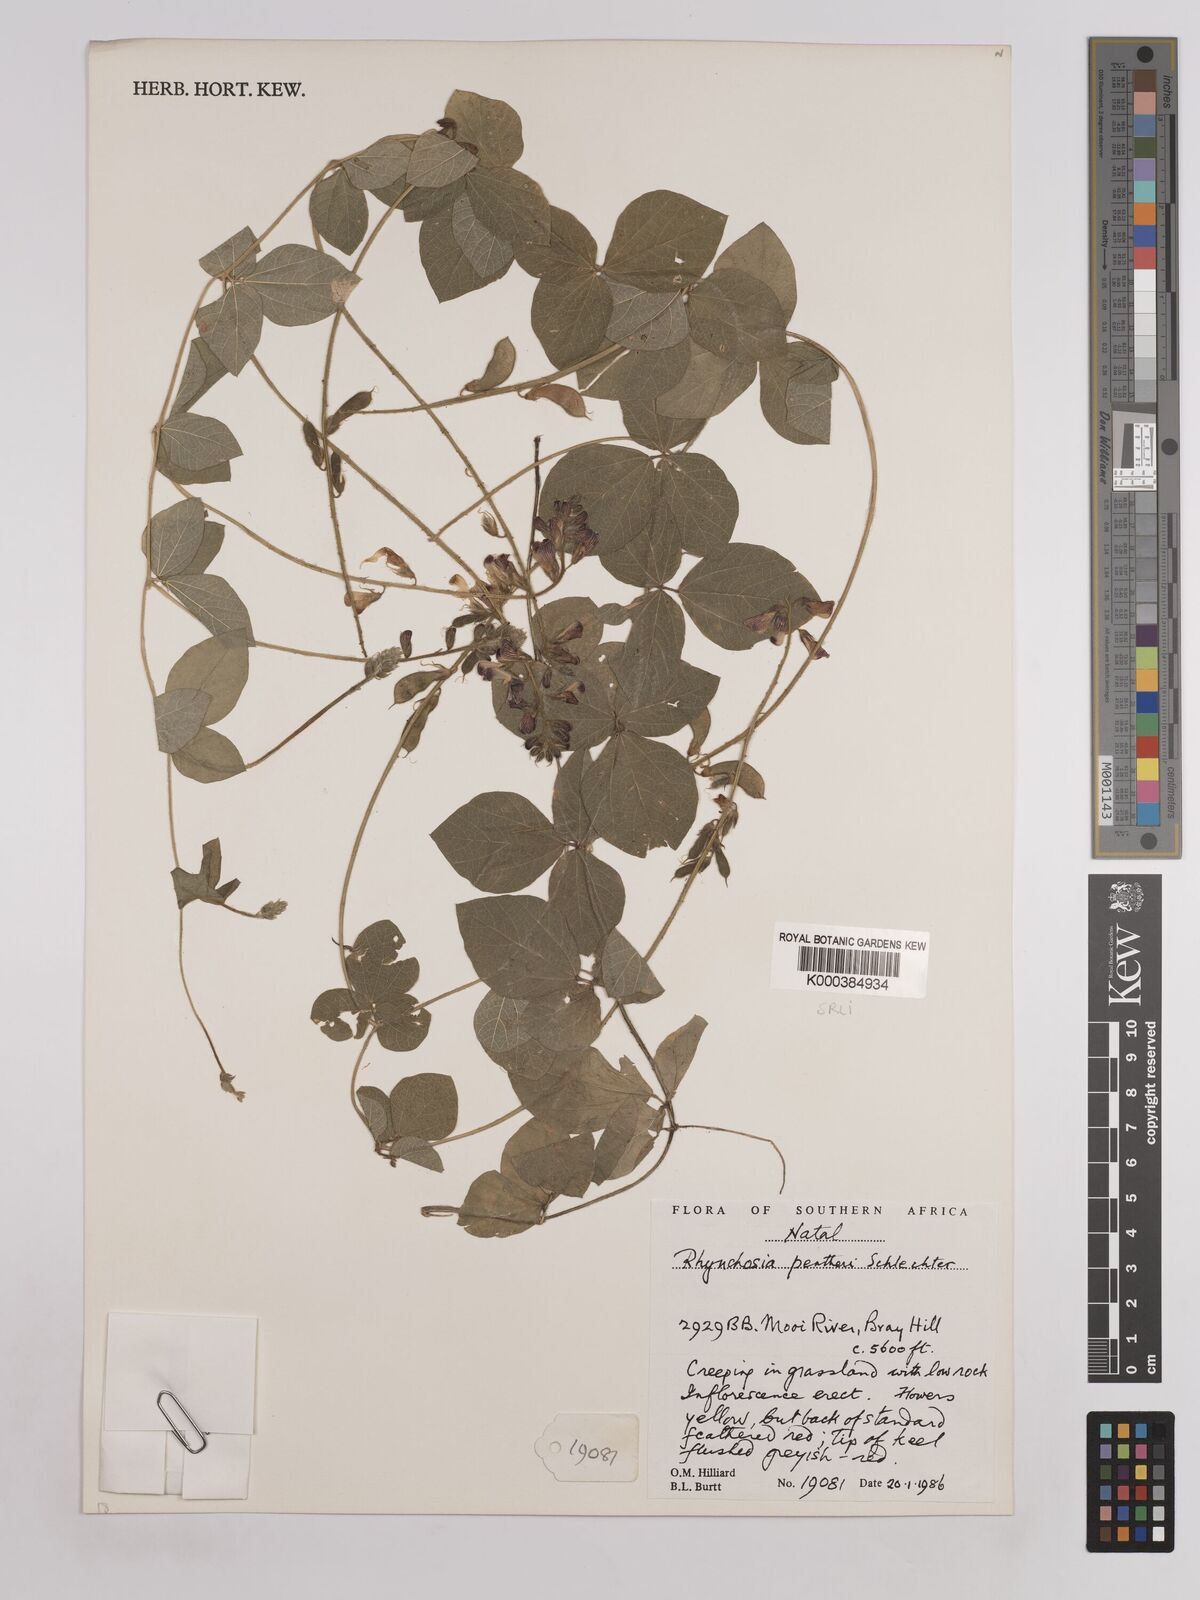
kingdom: Plantae
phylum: Tracheophyta
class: Magnoliopsida
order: Fabales
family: Fabaceae
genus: Rhynchosia
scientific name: Rhynchosia pentheri
